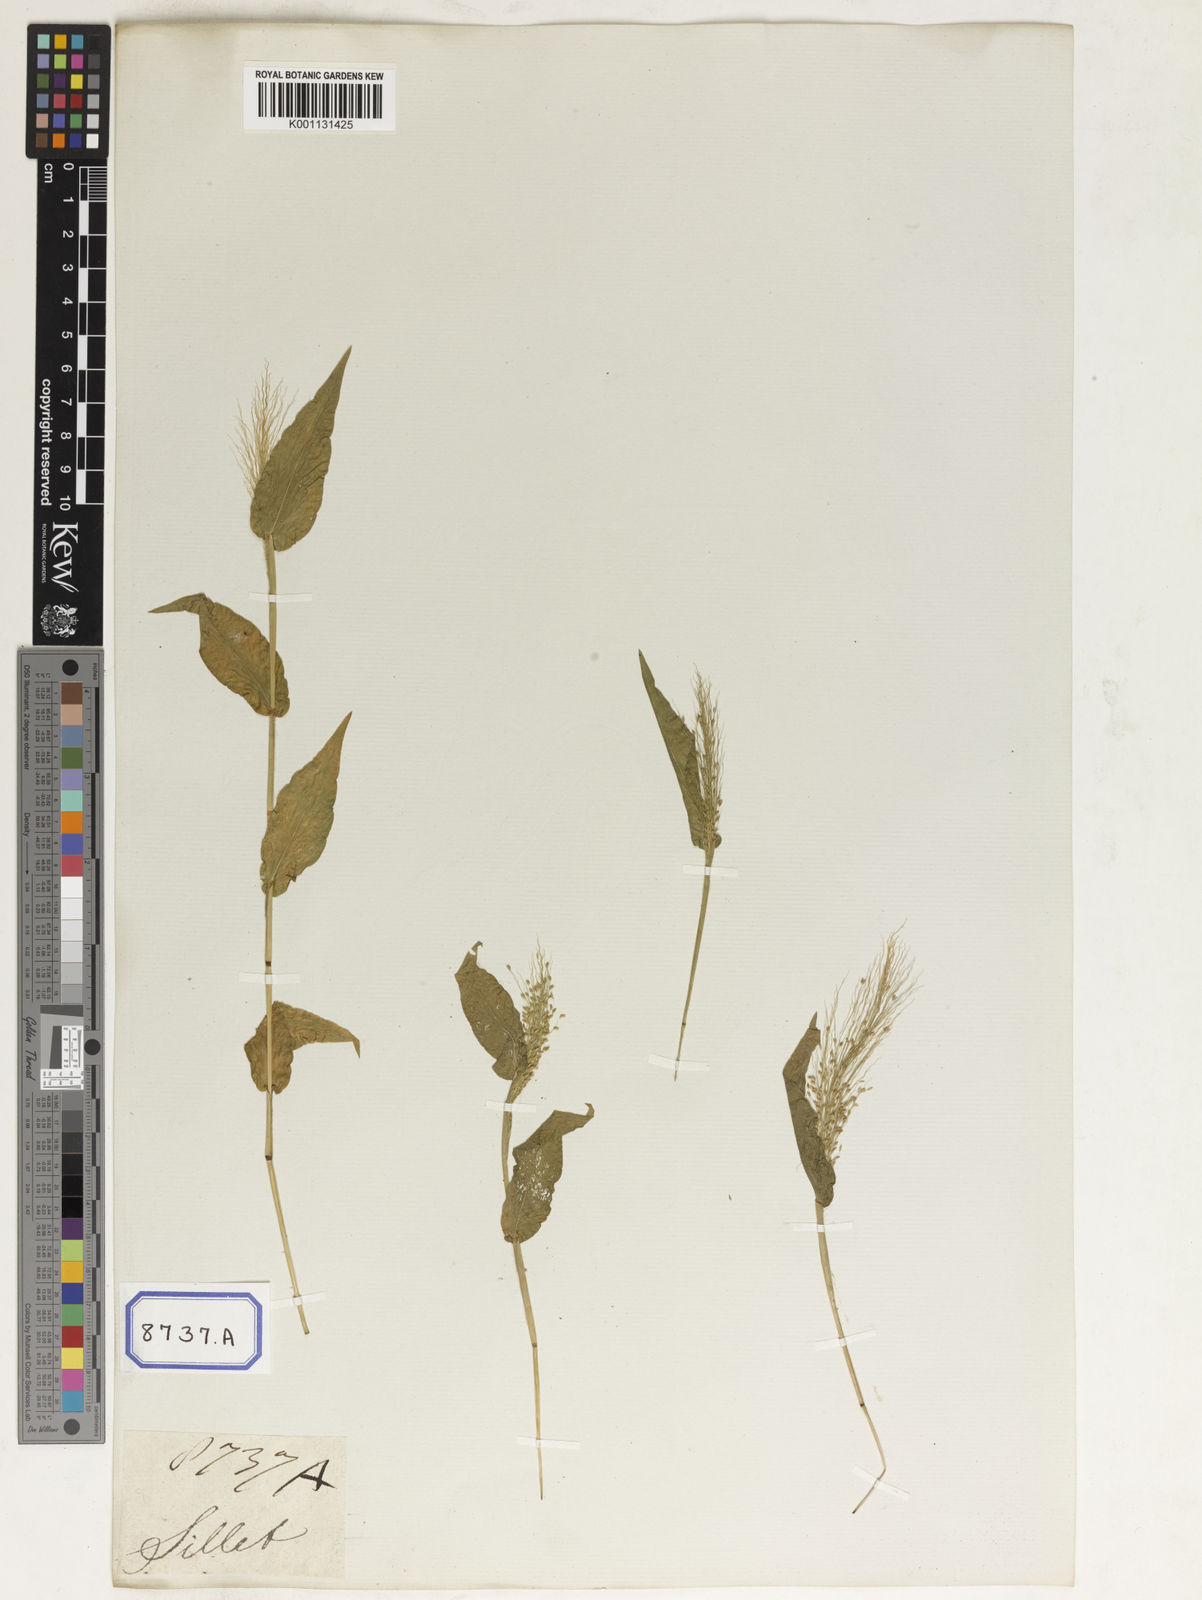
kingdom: Plantae
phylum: Tracheophyta
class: Liliopsida
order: Poales
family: Poaceae
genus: Panicum
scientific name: Panicum
